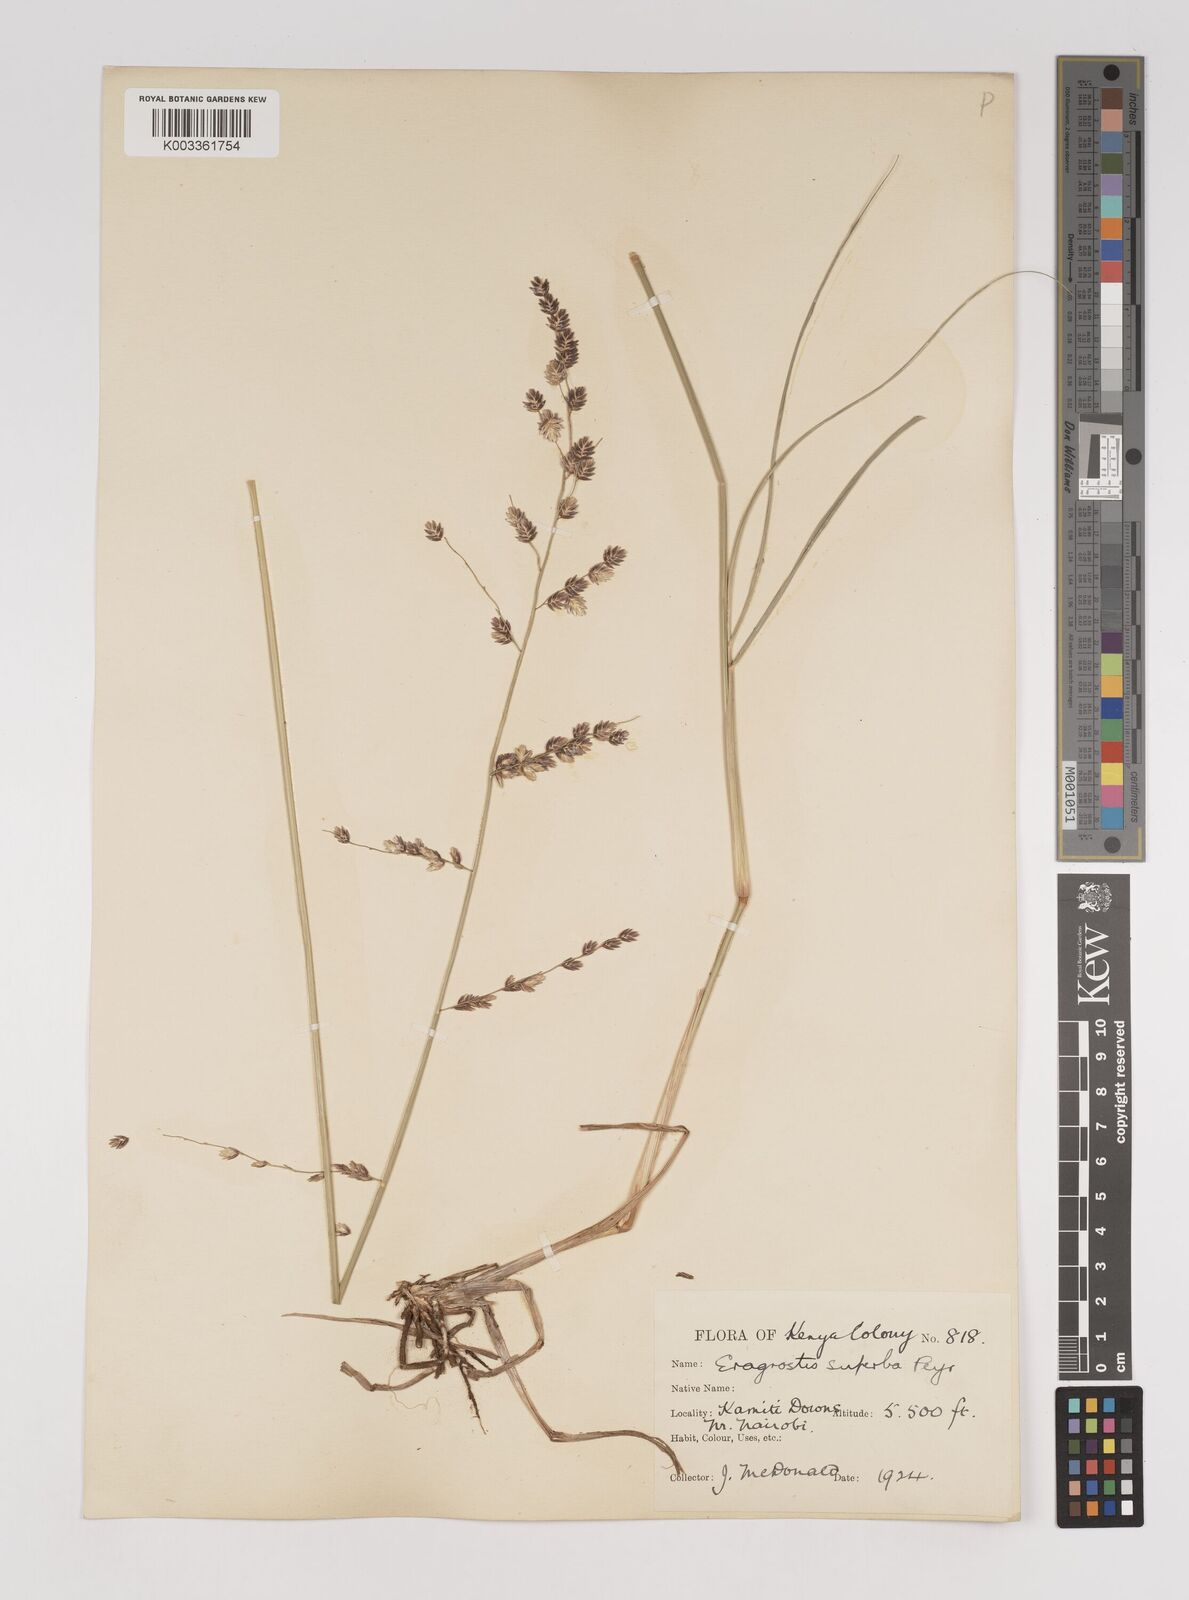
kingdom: Plantae
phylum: Tracheophyta
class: Liliopsida
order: Poales
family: Poaceae
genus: Eragrostis
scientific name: Eragrostis superba
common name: Wilman lovegrass
